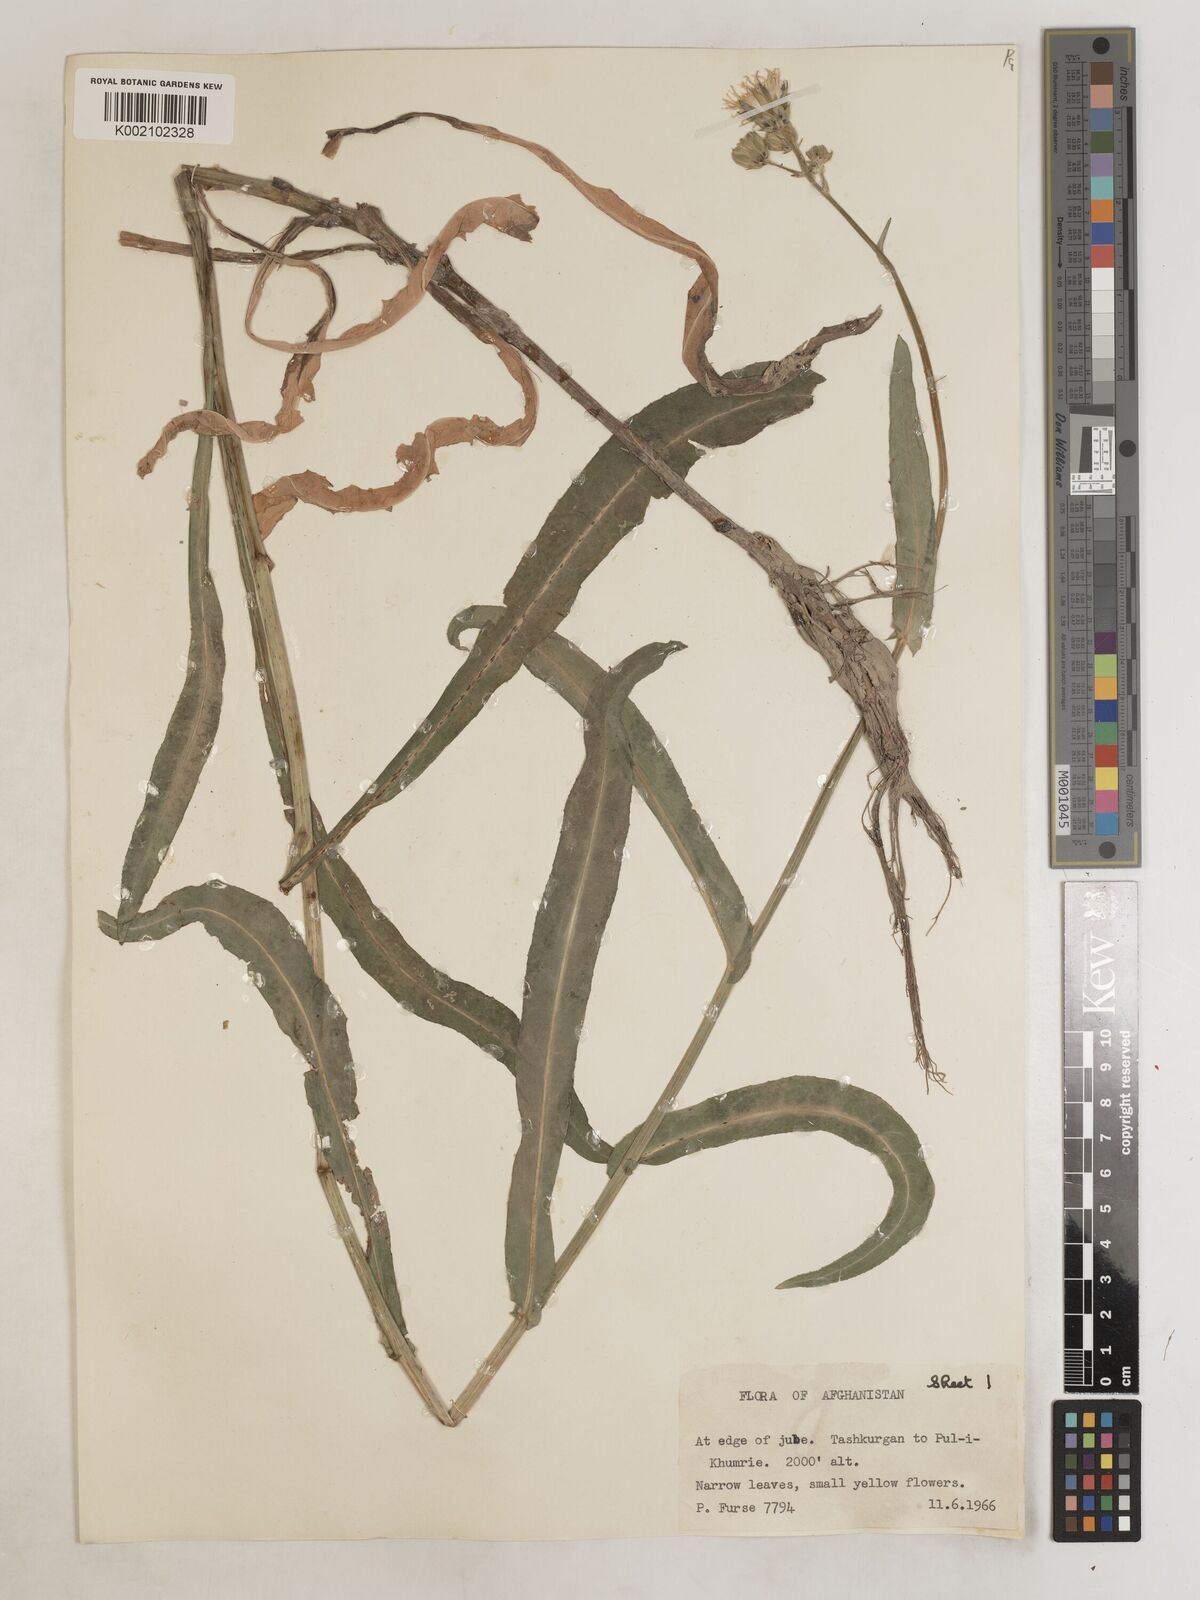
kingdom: Plantae
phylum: Tracheophyta
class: Magnoliopsida
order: Asterales
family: Asteraceae
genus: Sonchus
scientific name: Sonchus maritimus
